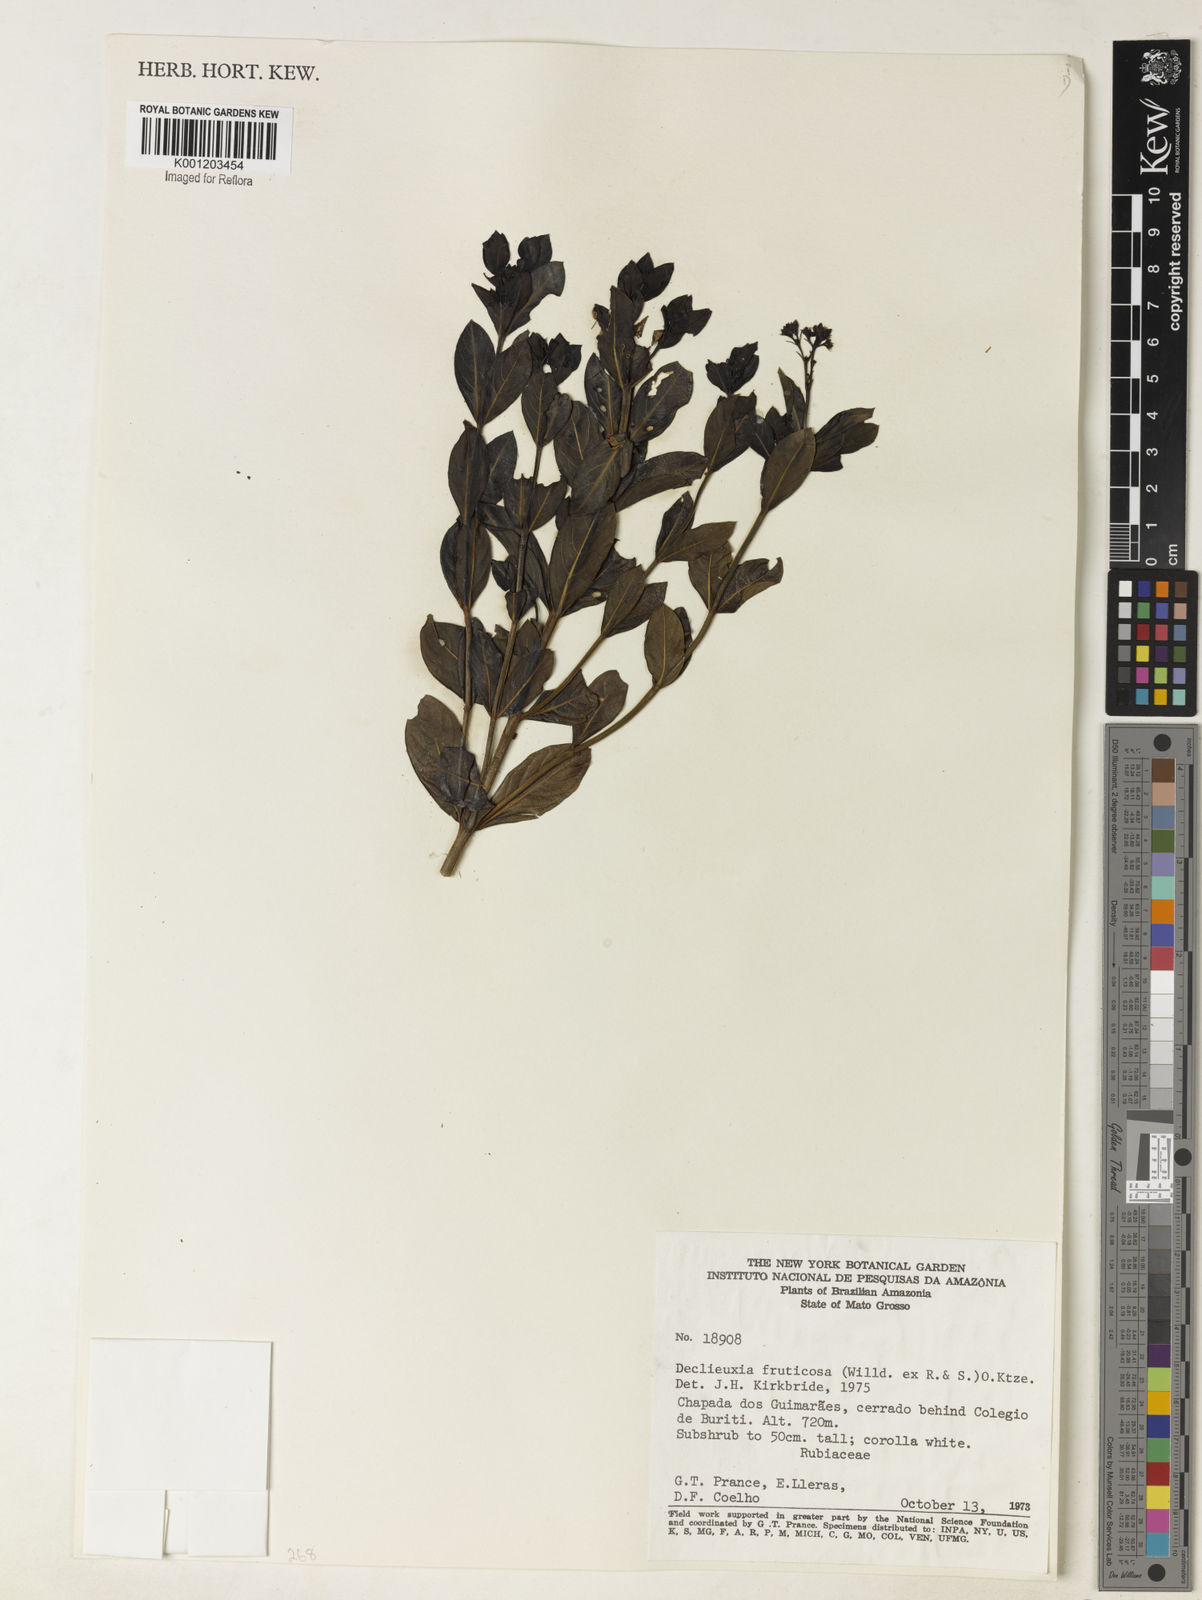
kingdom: Plantae
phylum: Tracheophyta
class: Magnoliopsida
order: Gentianales
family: Rubiaceae
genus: Declieuxia
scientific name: Declieuxia fruticosa
